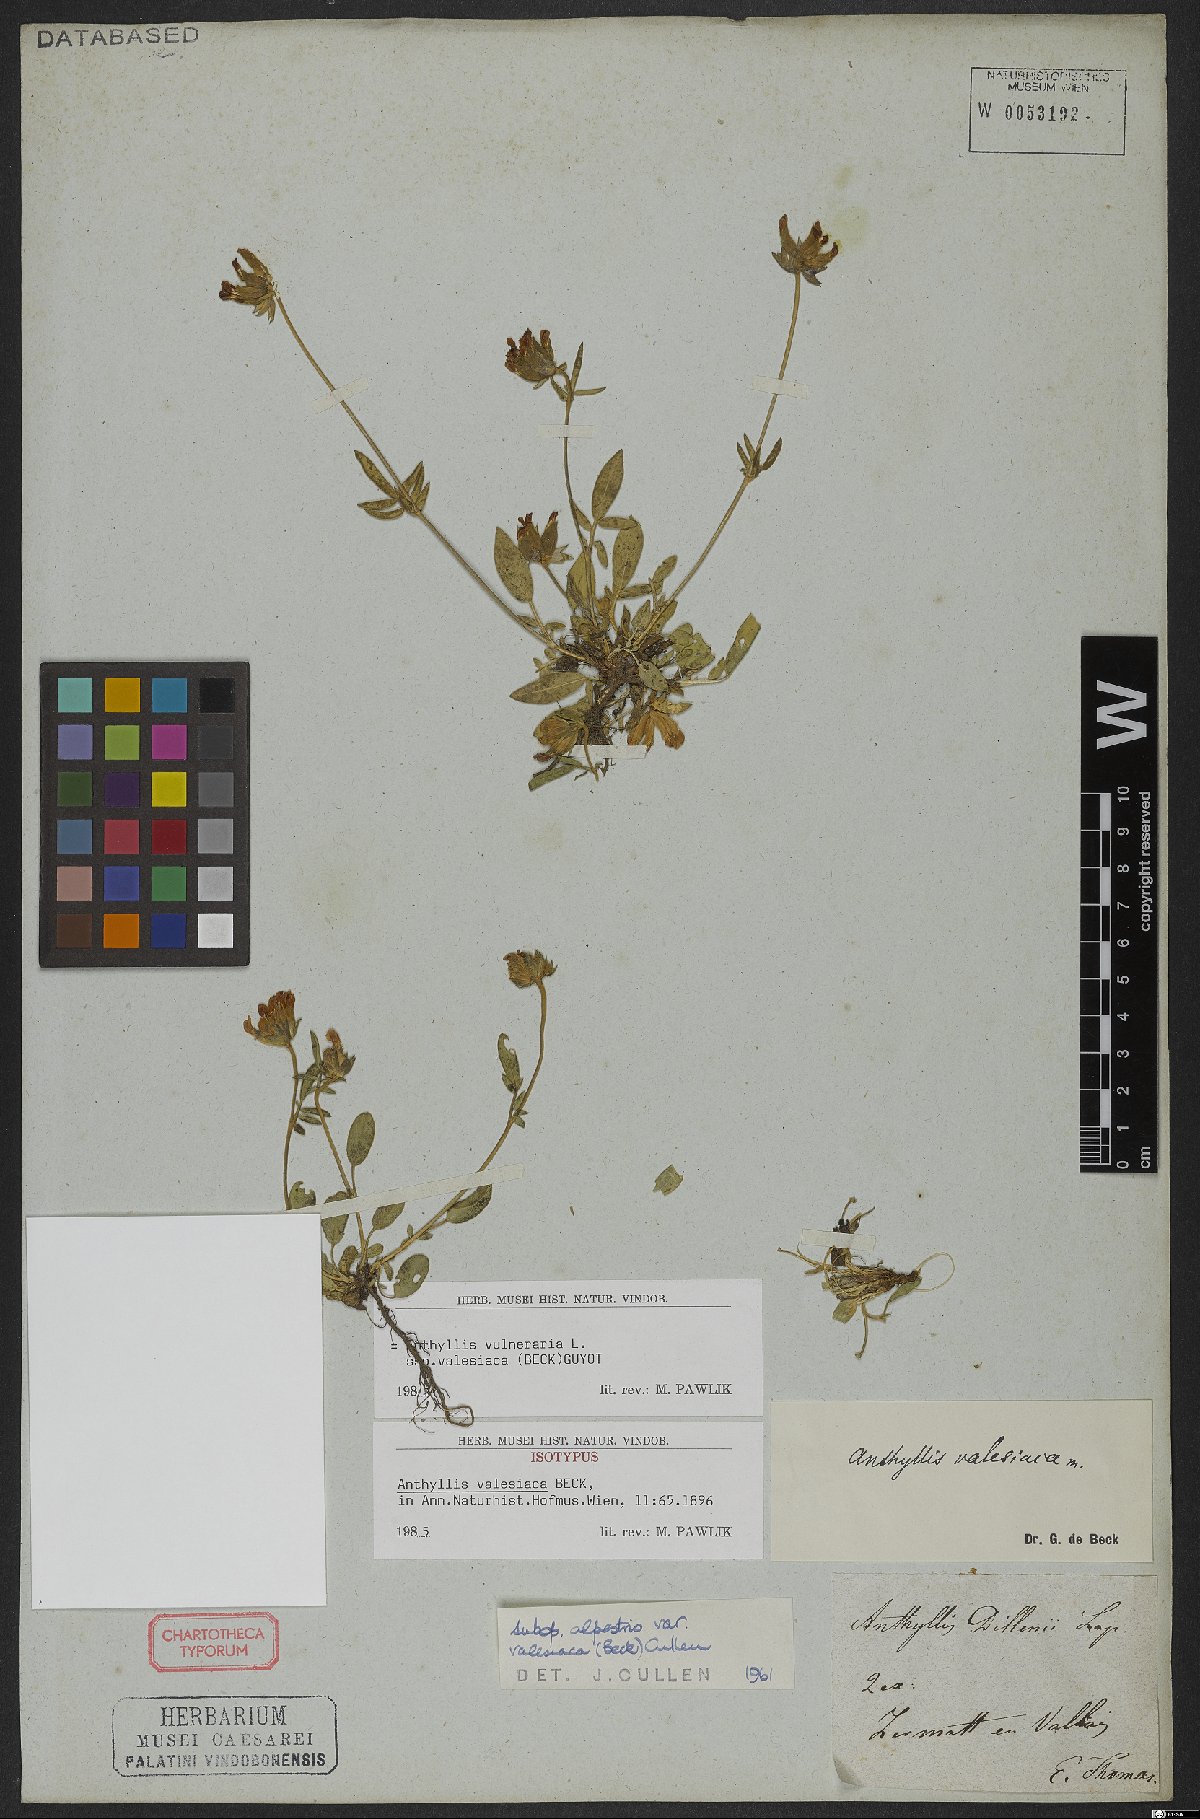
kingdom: Plantae
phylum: Tracheophyta
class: Magnoliopsida
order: Fabales
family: Fabaceae
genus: Anthyllis
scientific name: Anthyllis vulneraria
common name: Kidney vetch
